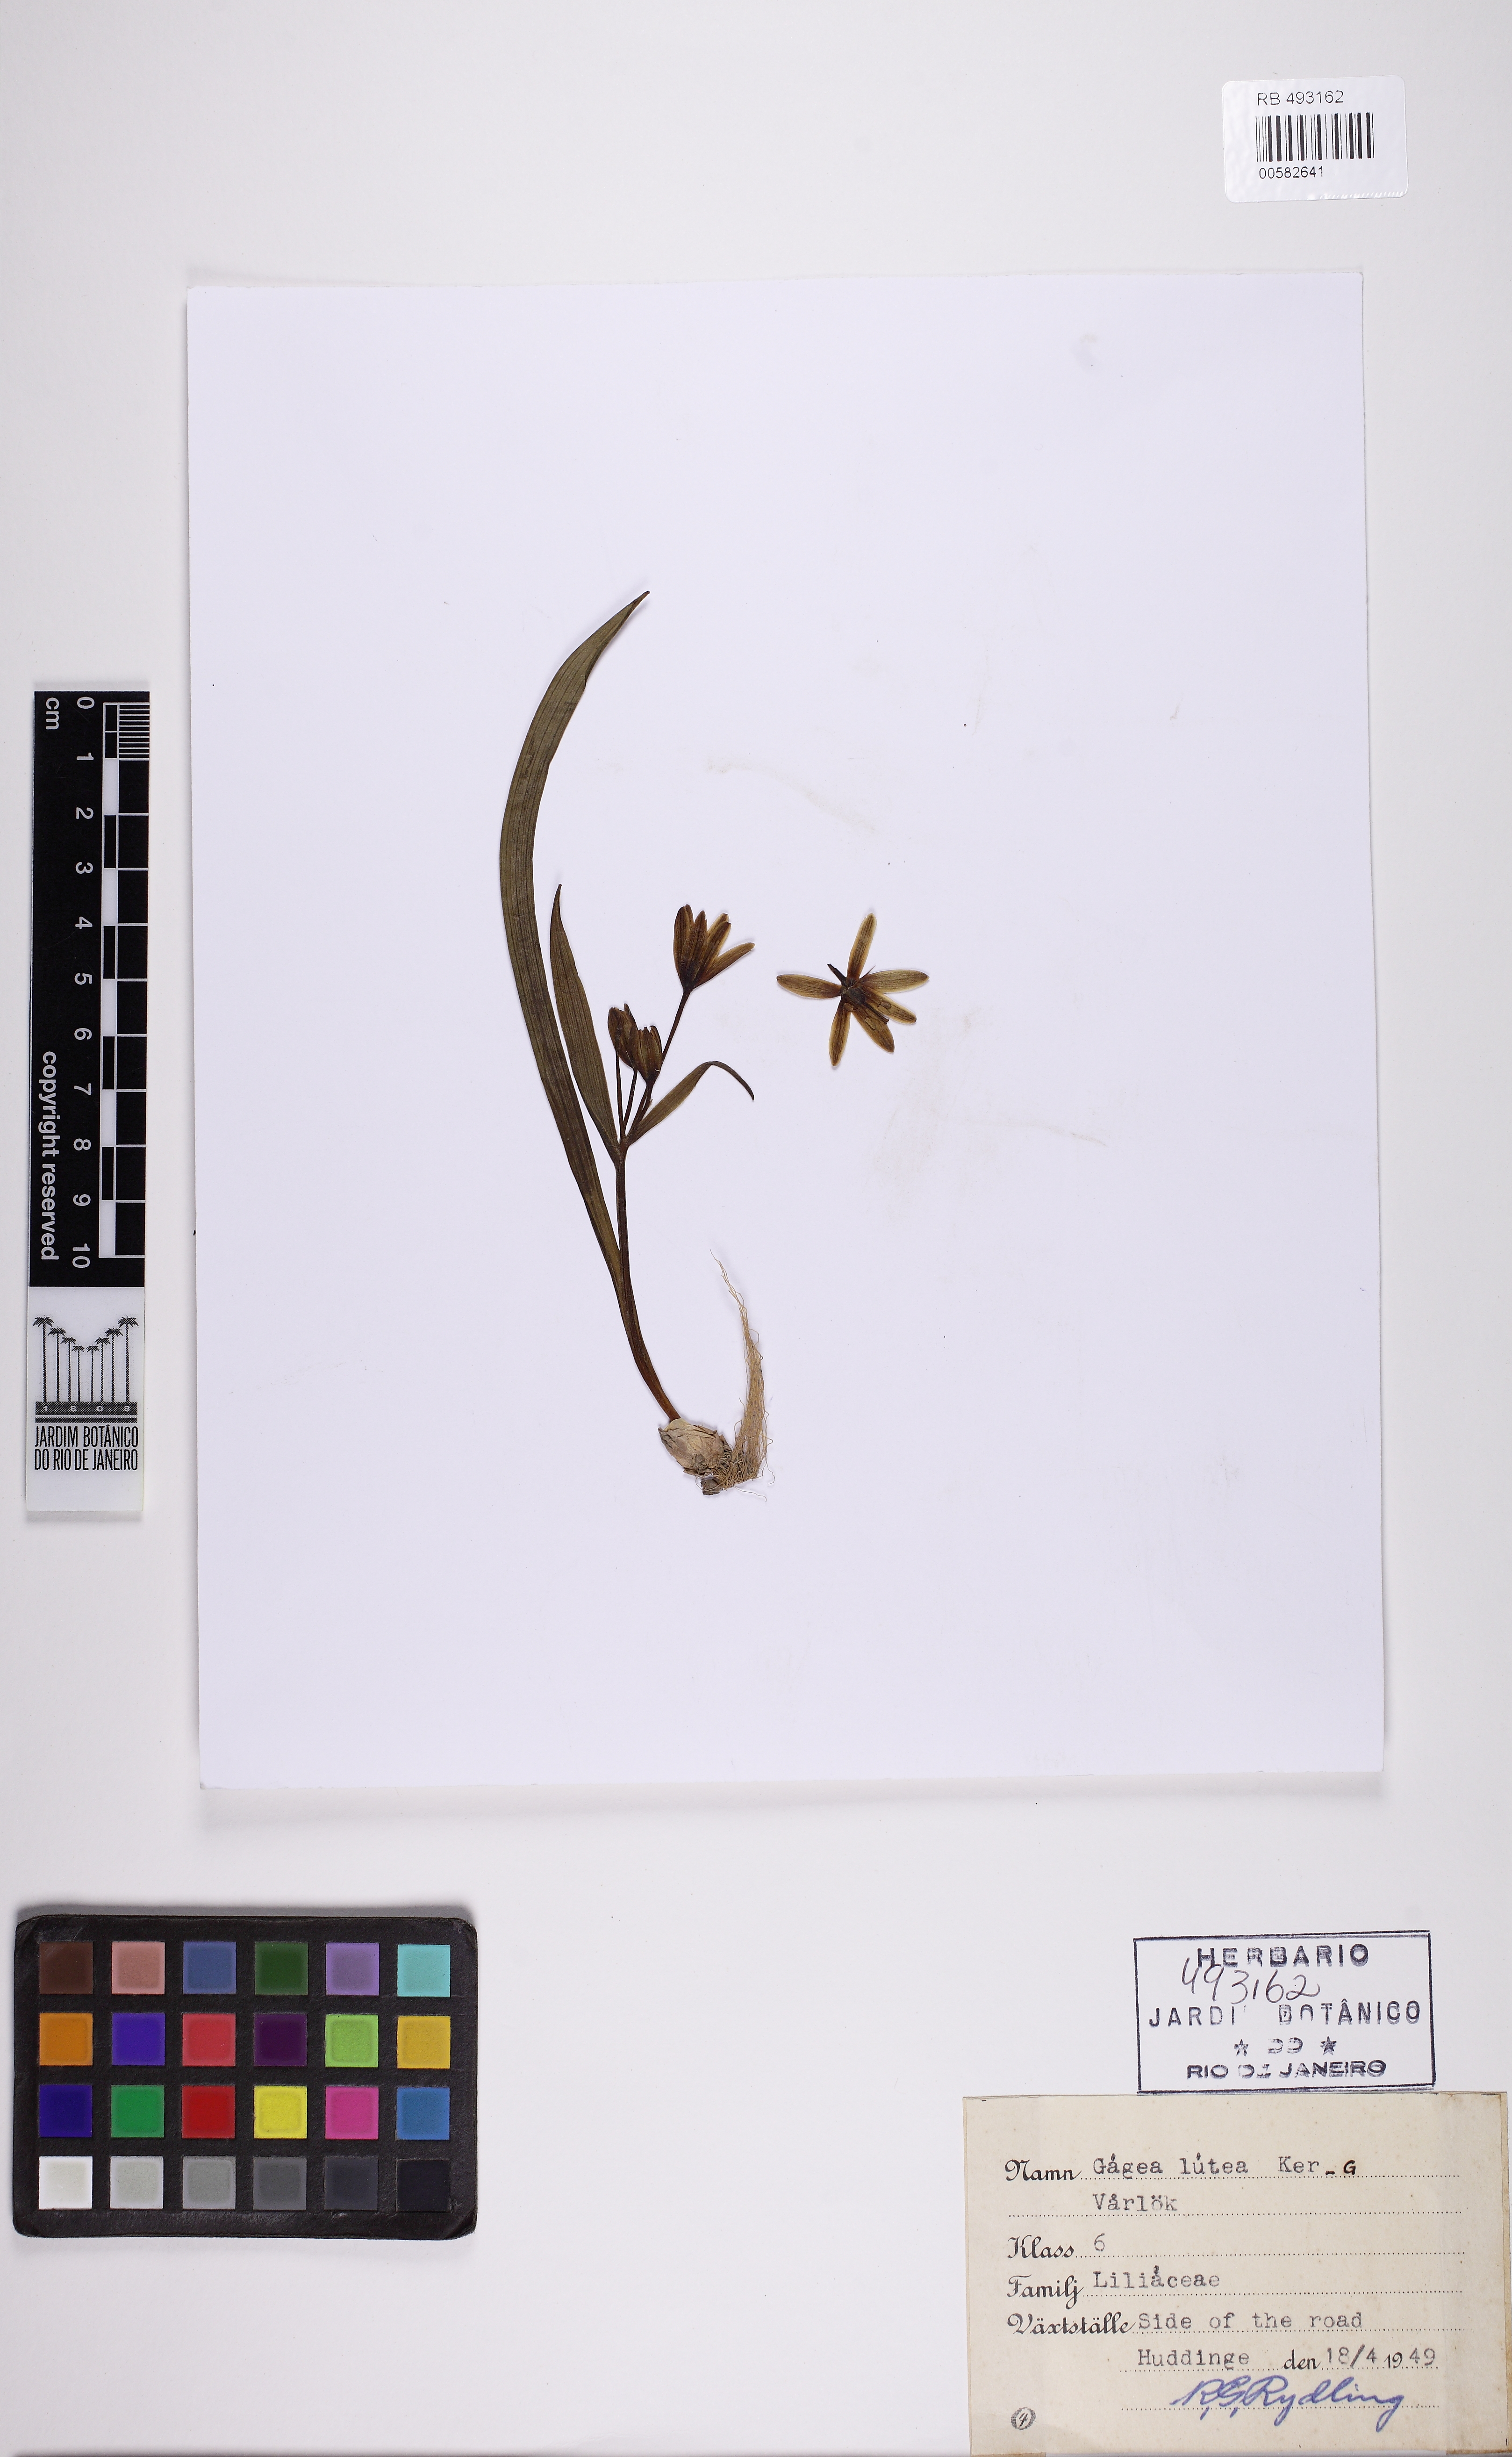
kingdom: Plantae
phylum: Tracheophyta
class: Liliopsida
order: Liliales
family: Liliaceae
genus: Gagea
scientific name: Gagea lutea
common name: Yellow star-of-bethlehem
